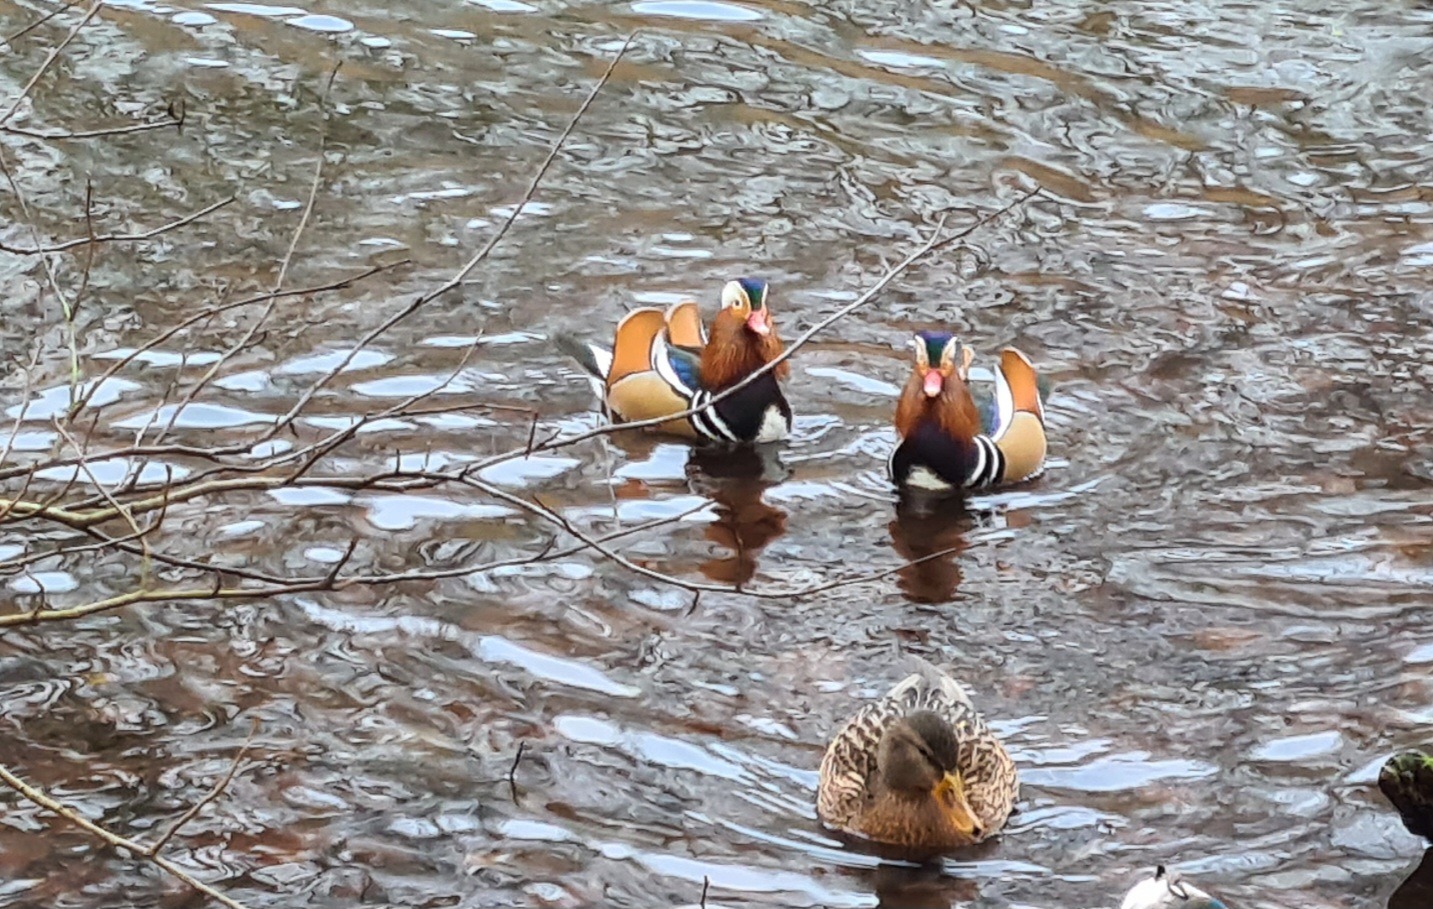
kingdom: Animalia
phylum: Chordata
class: Aves
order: Anseriformes
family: Anatidae
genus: Aix
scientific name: Aix galericulata
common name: Mandarinand
